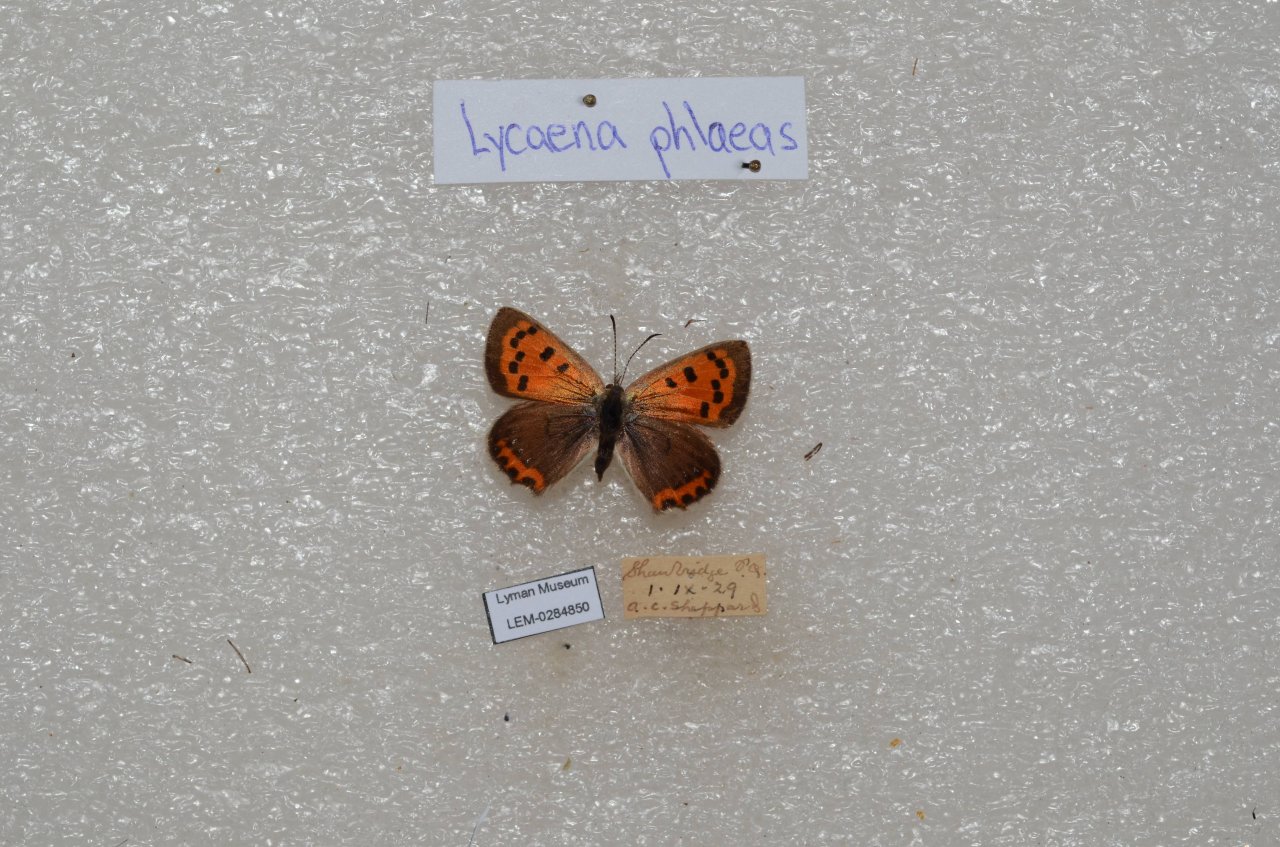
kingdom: Animalia
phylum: Arthropoda
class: Insecta
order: Lepidoptera
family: Lycaenidae
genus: Lycaena
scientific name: Lycaena phlaeas
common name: American Copper
